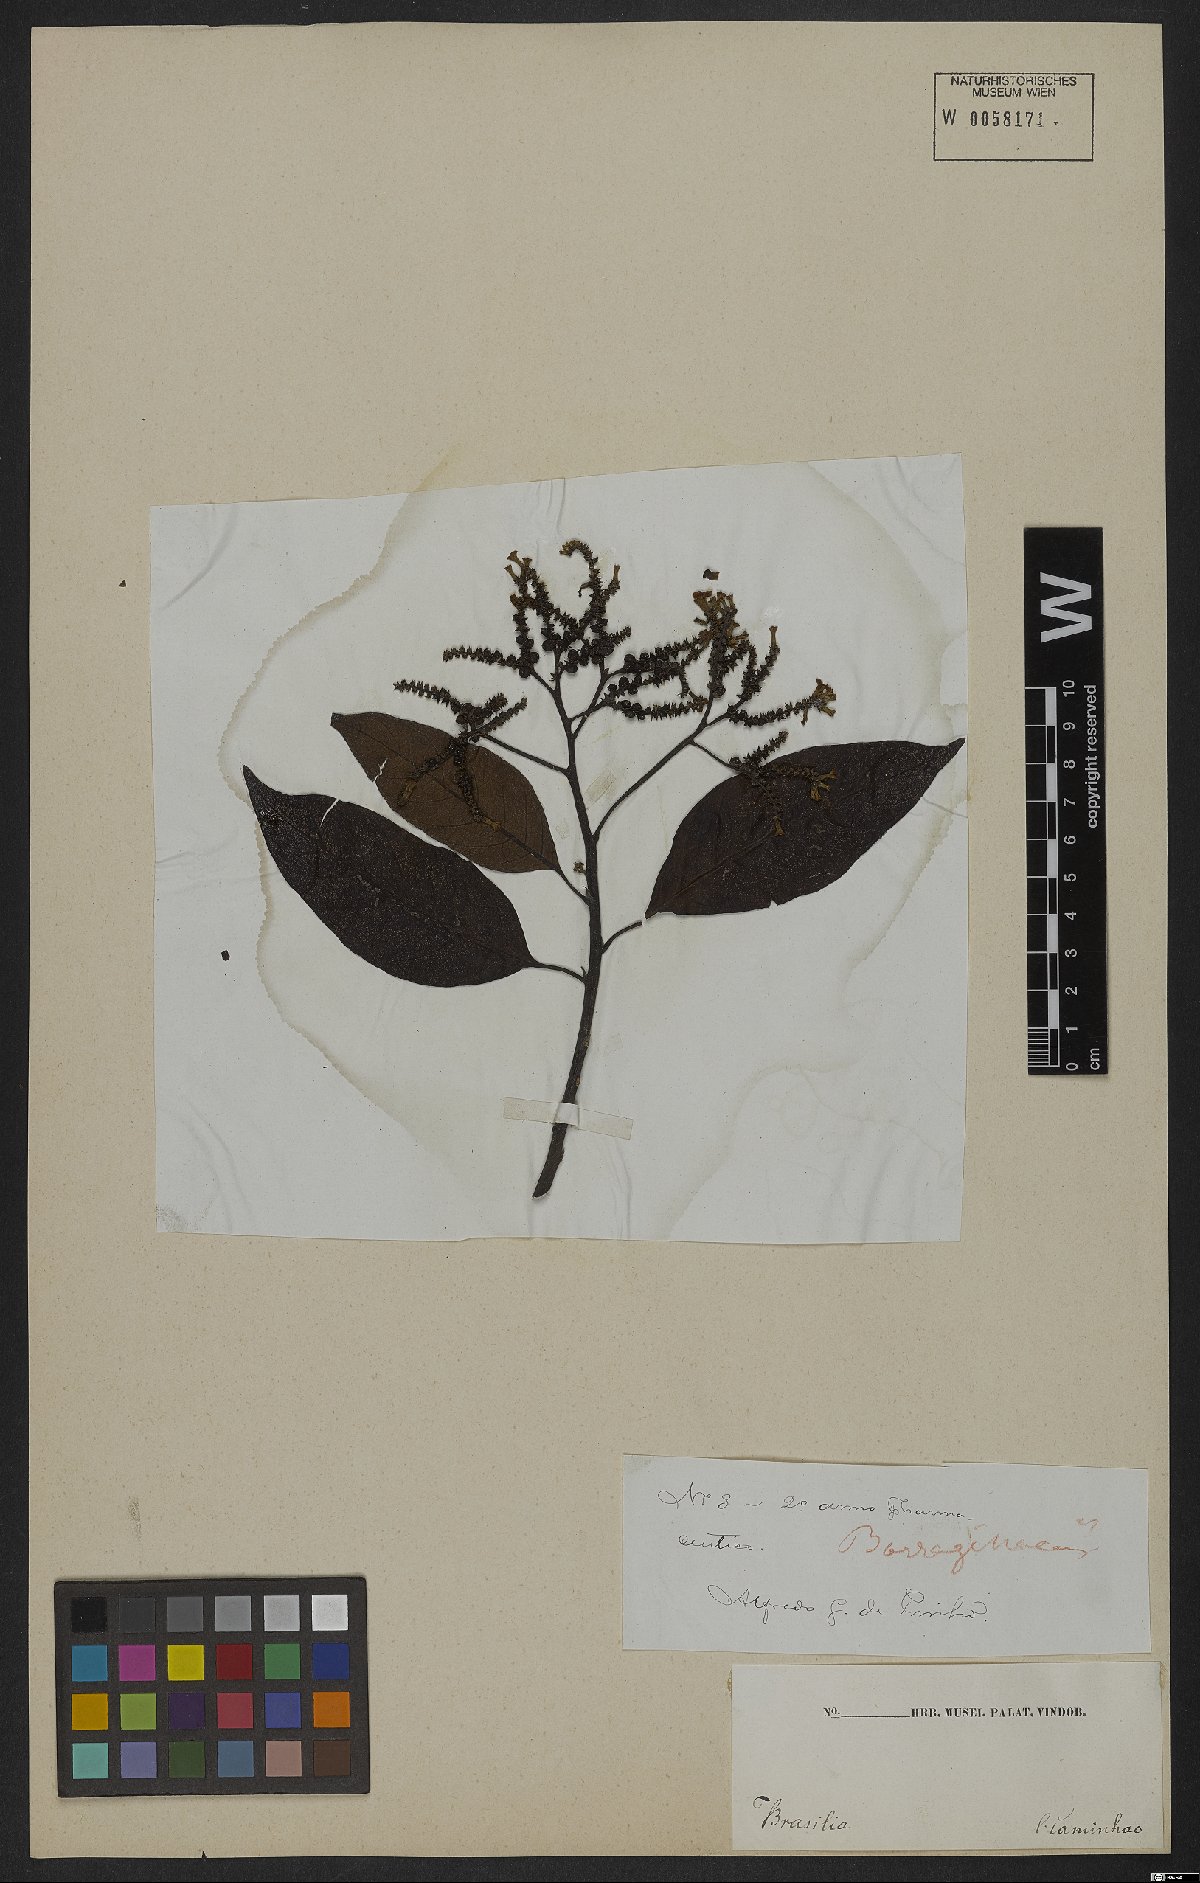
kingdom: Plantae
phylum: Tracheophyta
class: Magnoliopsida
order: Boraginales
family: Heliotropiaceae
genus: Heliotropium
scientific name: Heliotropium verdcourtii
